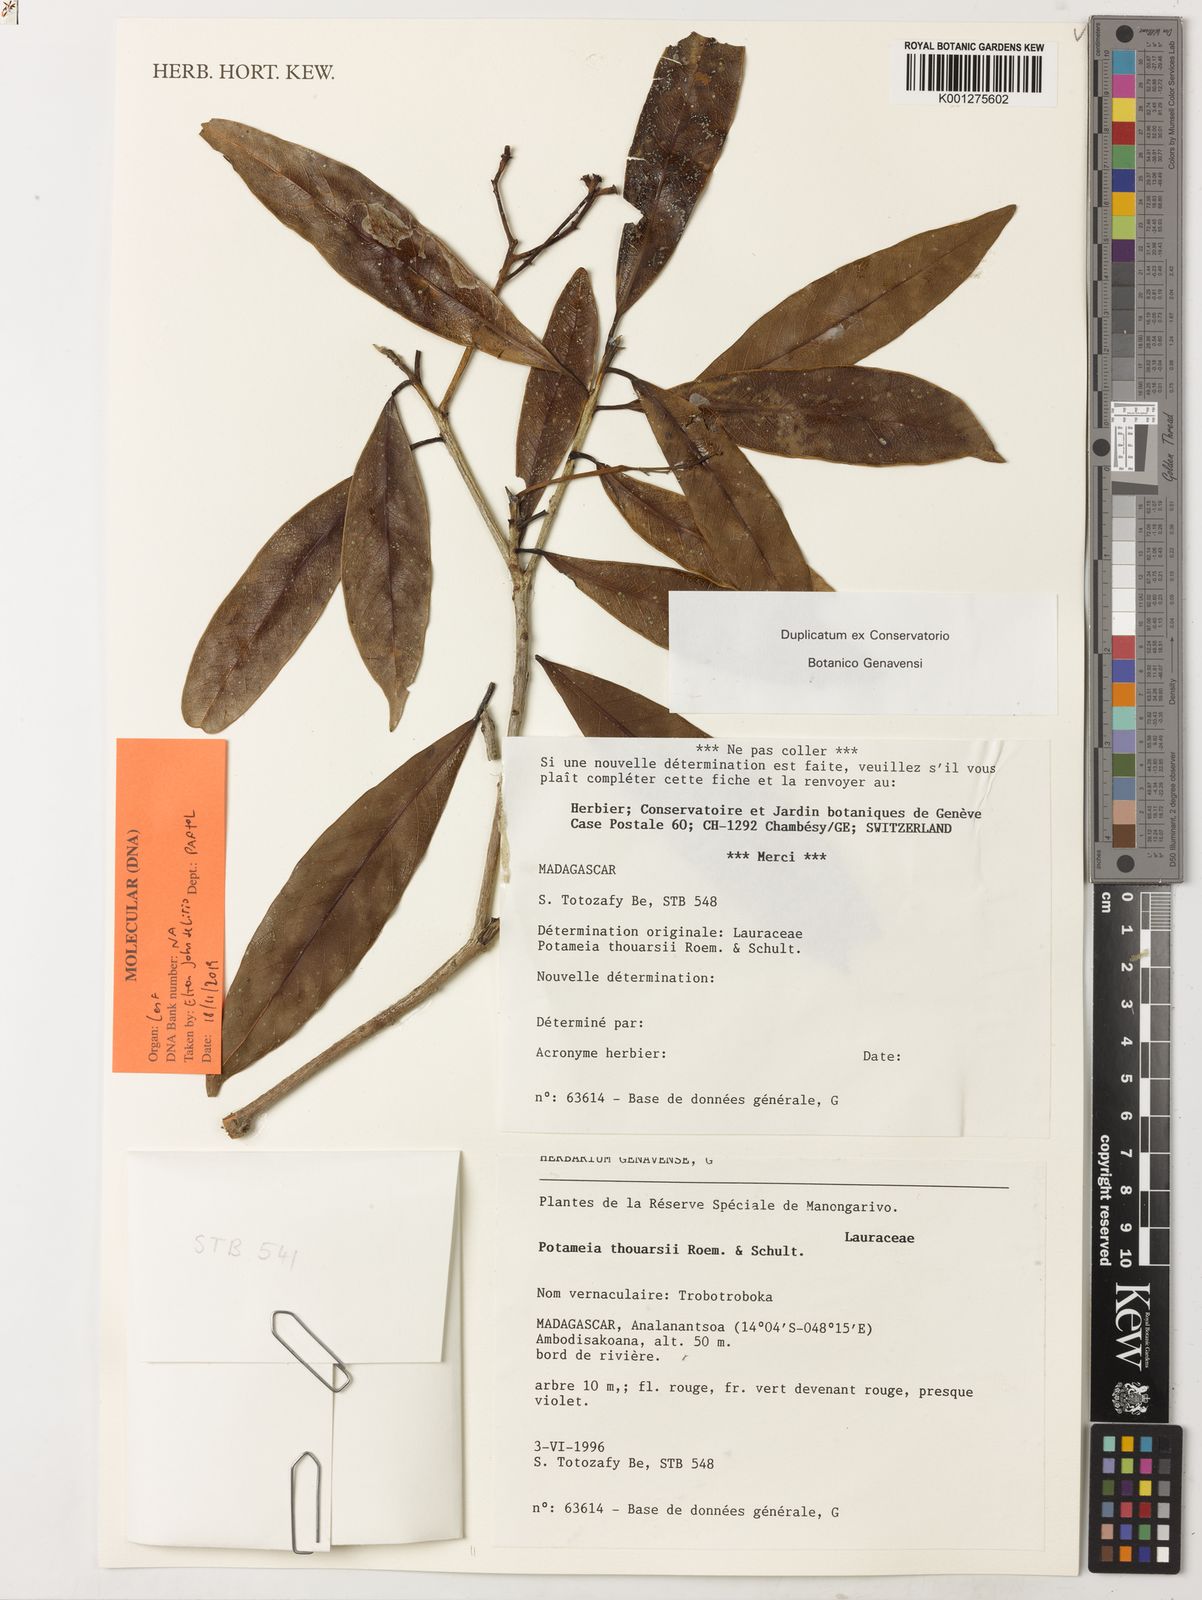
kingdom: Plantae
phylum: Tracheophyta
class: Magnoliopsida
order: Laurales
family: Lauraceae
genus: Potameia
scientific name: Potameia thouarsii
